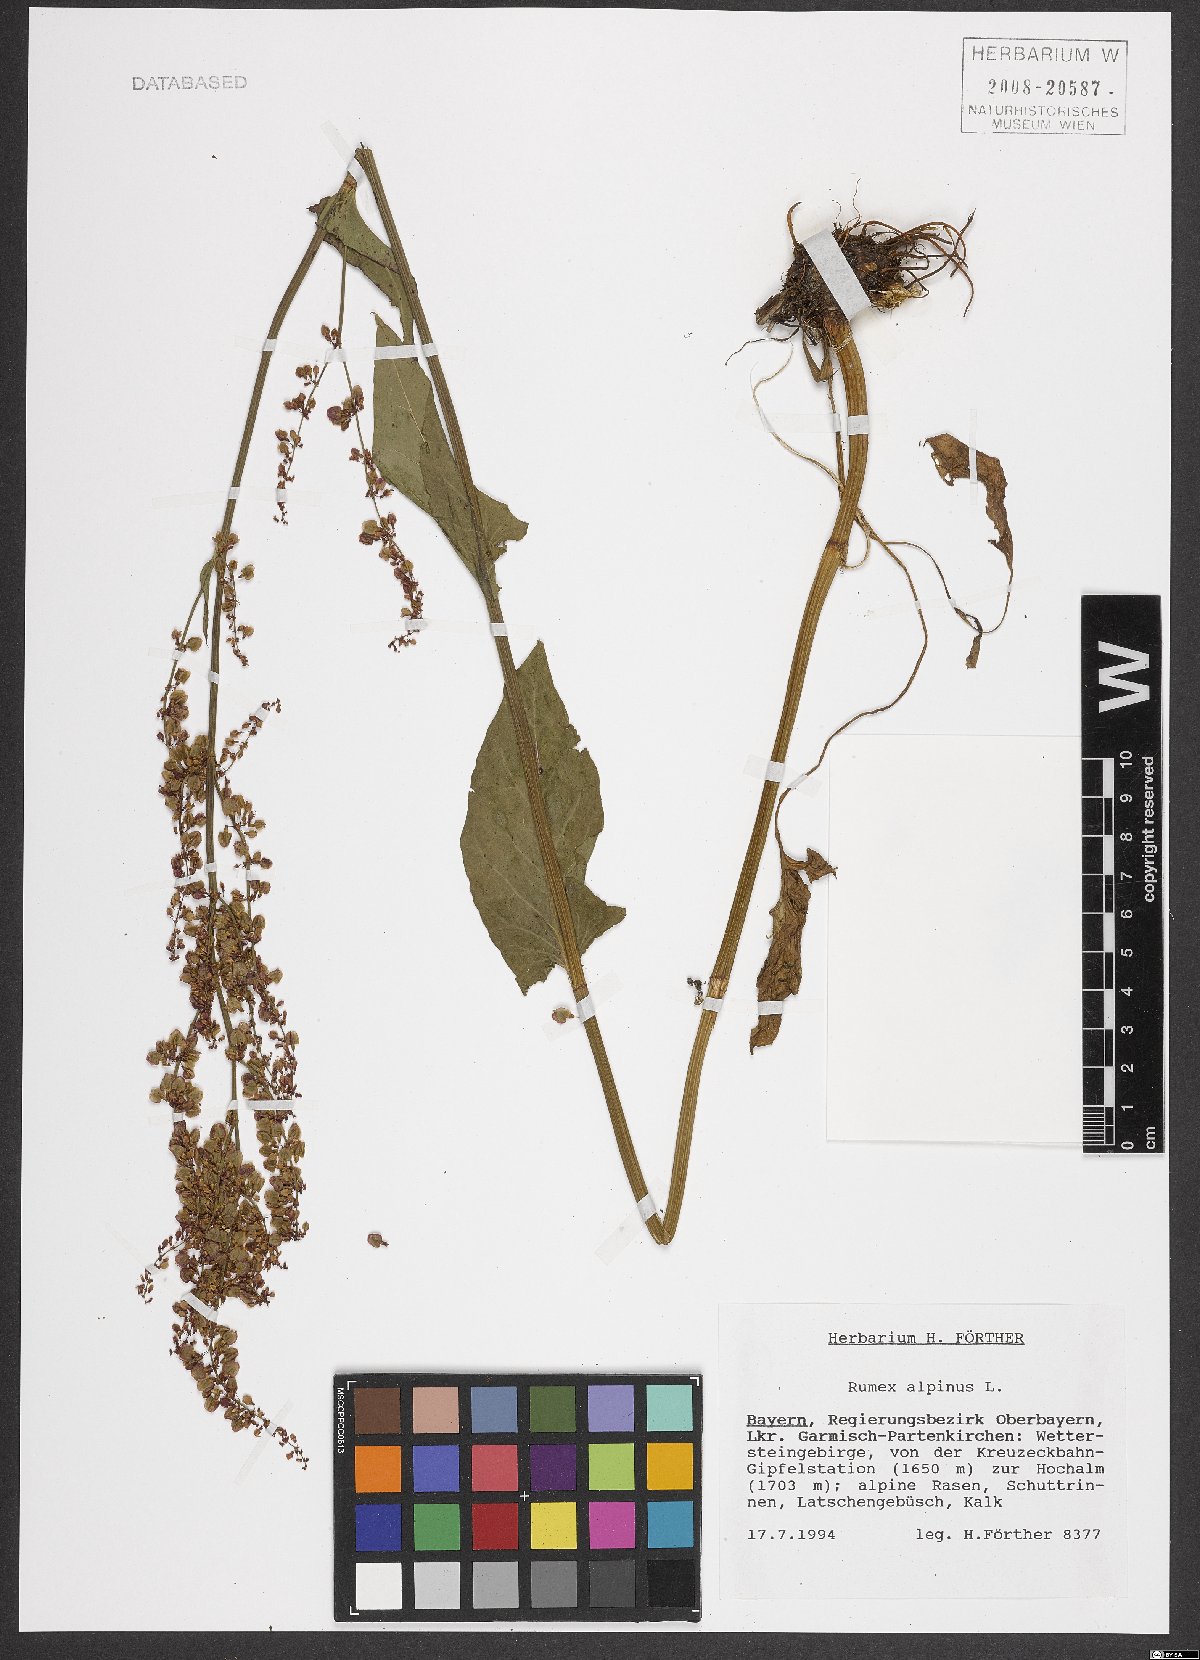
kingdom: Plantae
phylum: Tracheophyta
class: Magnoliopsida
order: Caryophyllales
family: Polygonaceae
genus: Rumex
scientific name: Rumex alpinus
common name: Alpine dock
